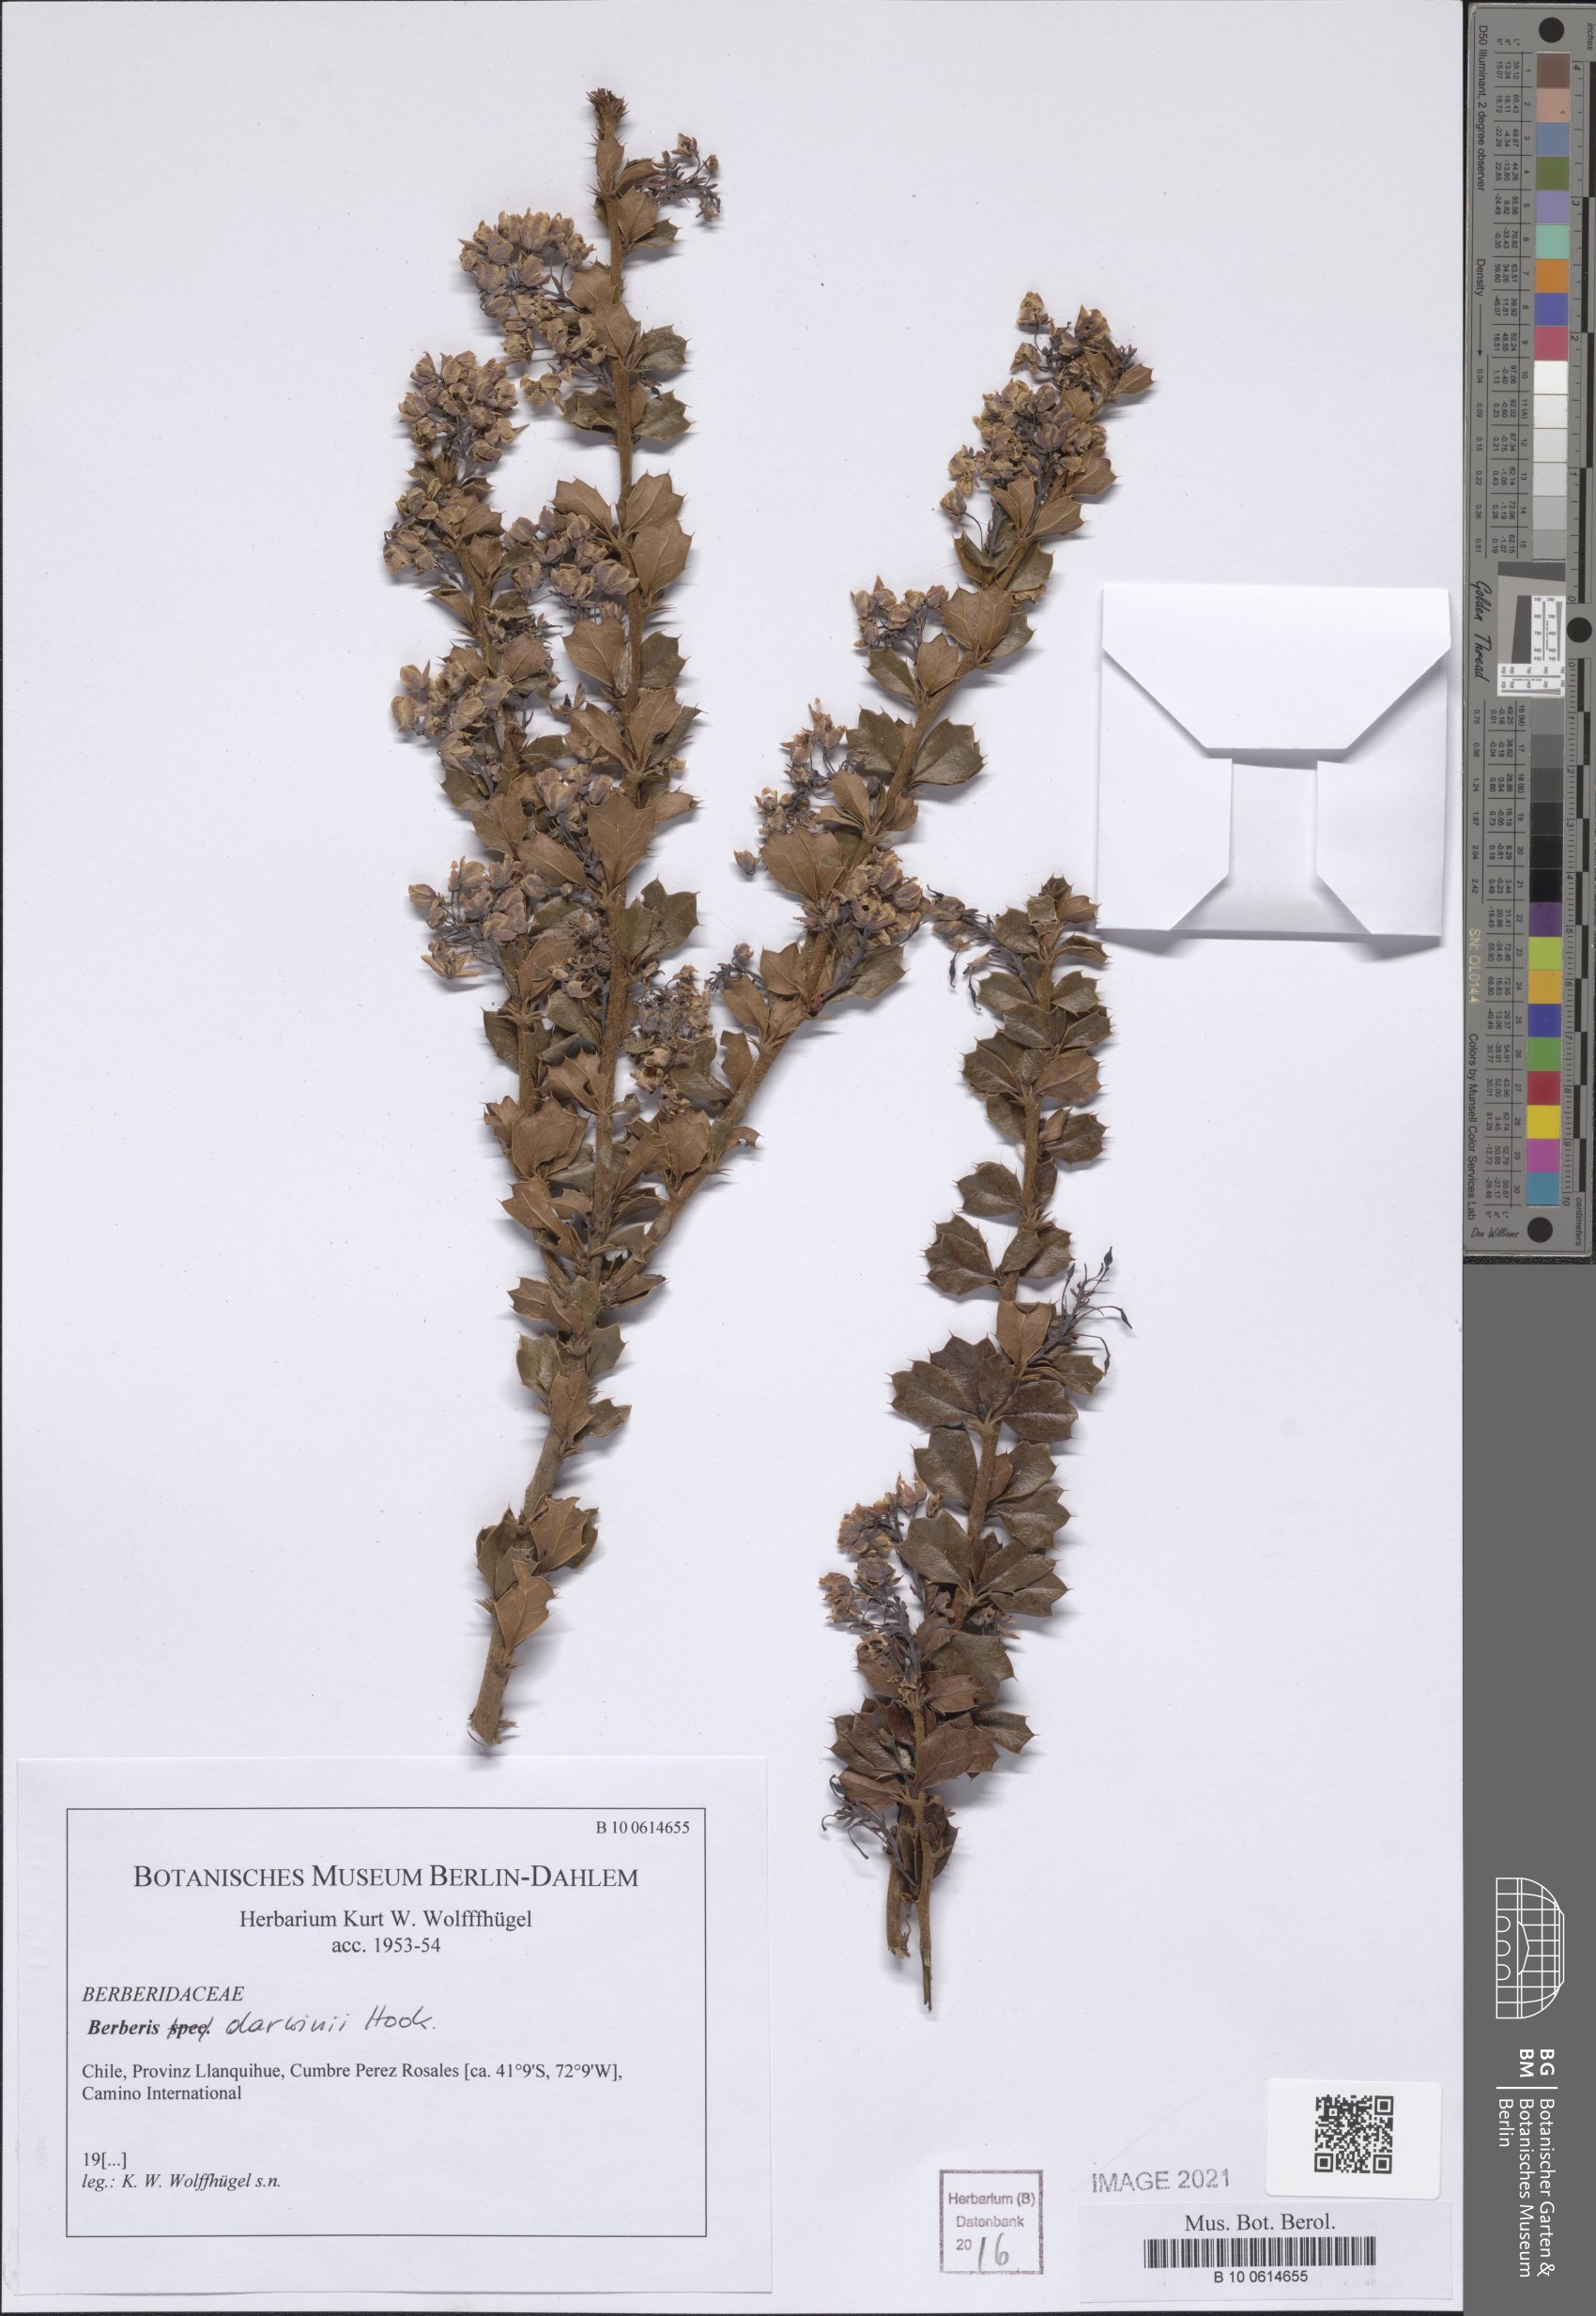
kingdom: Plantae
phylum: Tracheophyta
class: Magnoliopsida
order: Ranunculales
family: Berberidaceae
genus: Berberis
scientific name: Berberis darwinii
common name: Darwin's barberry
